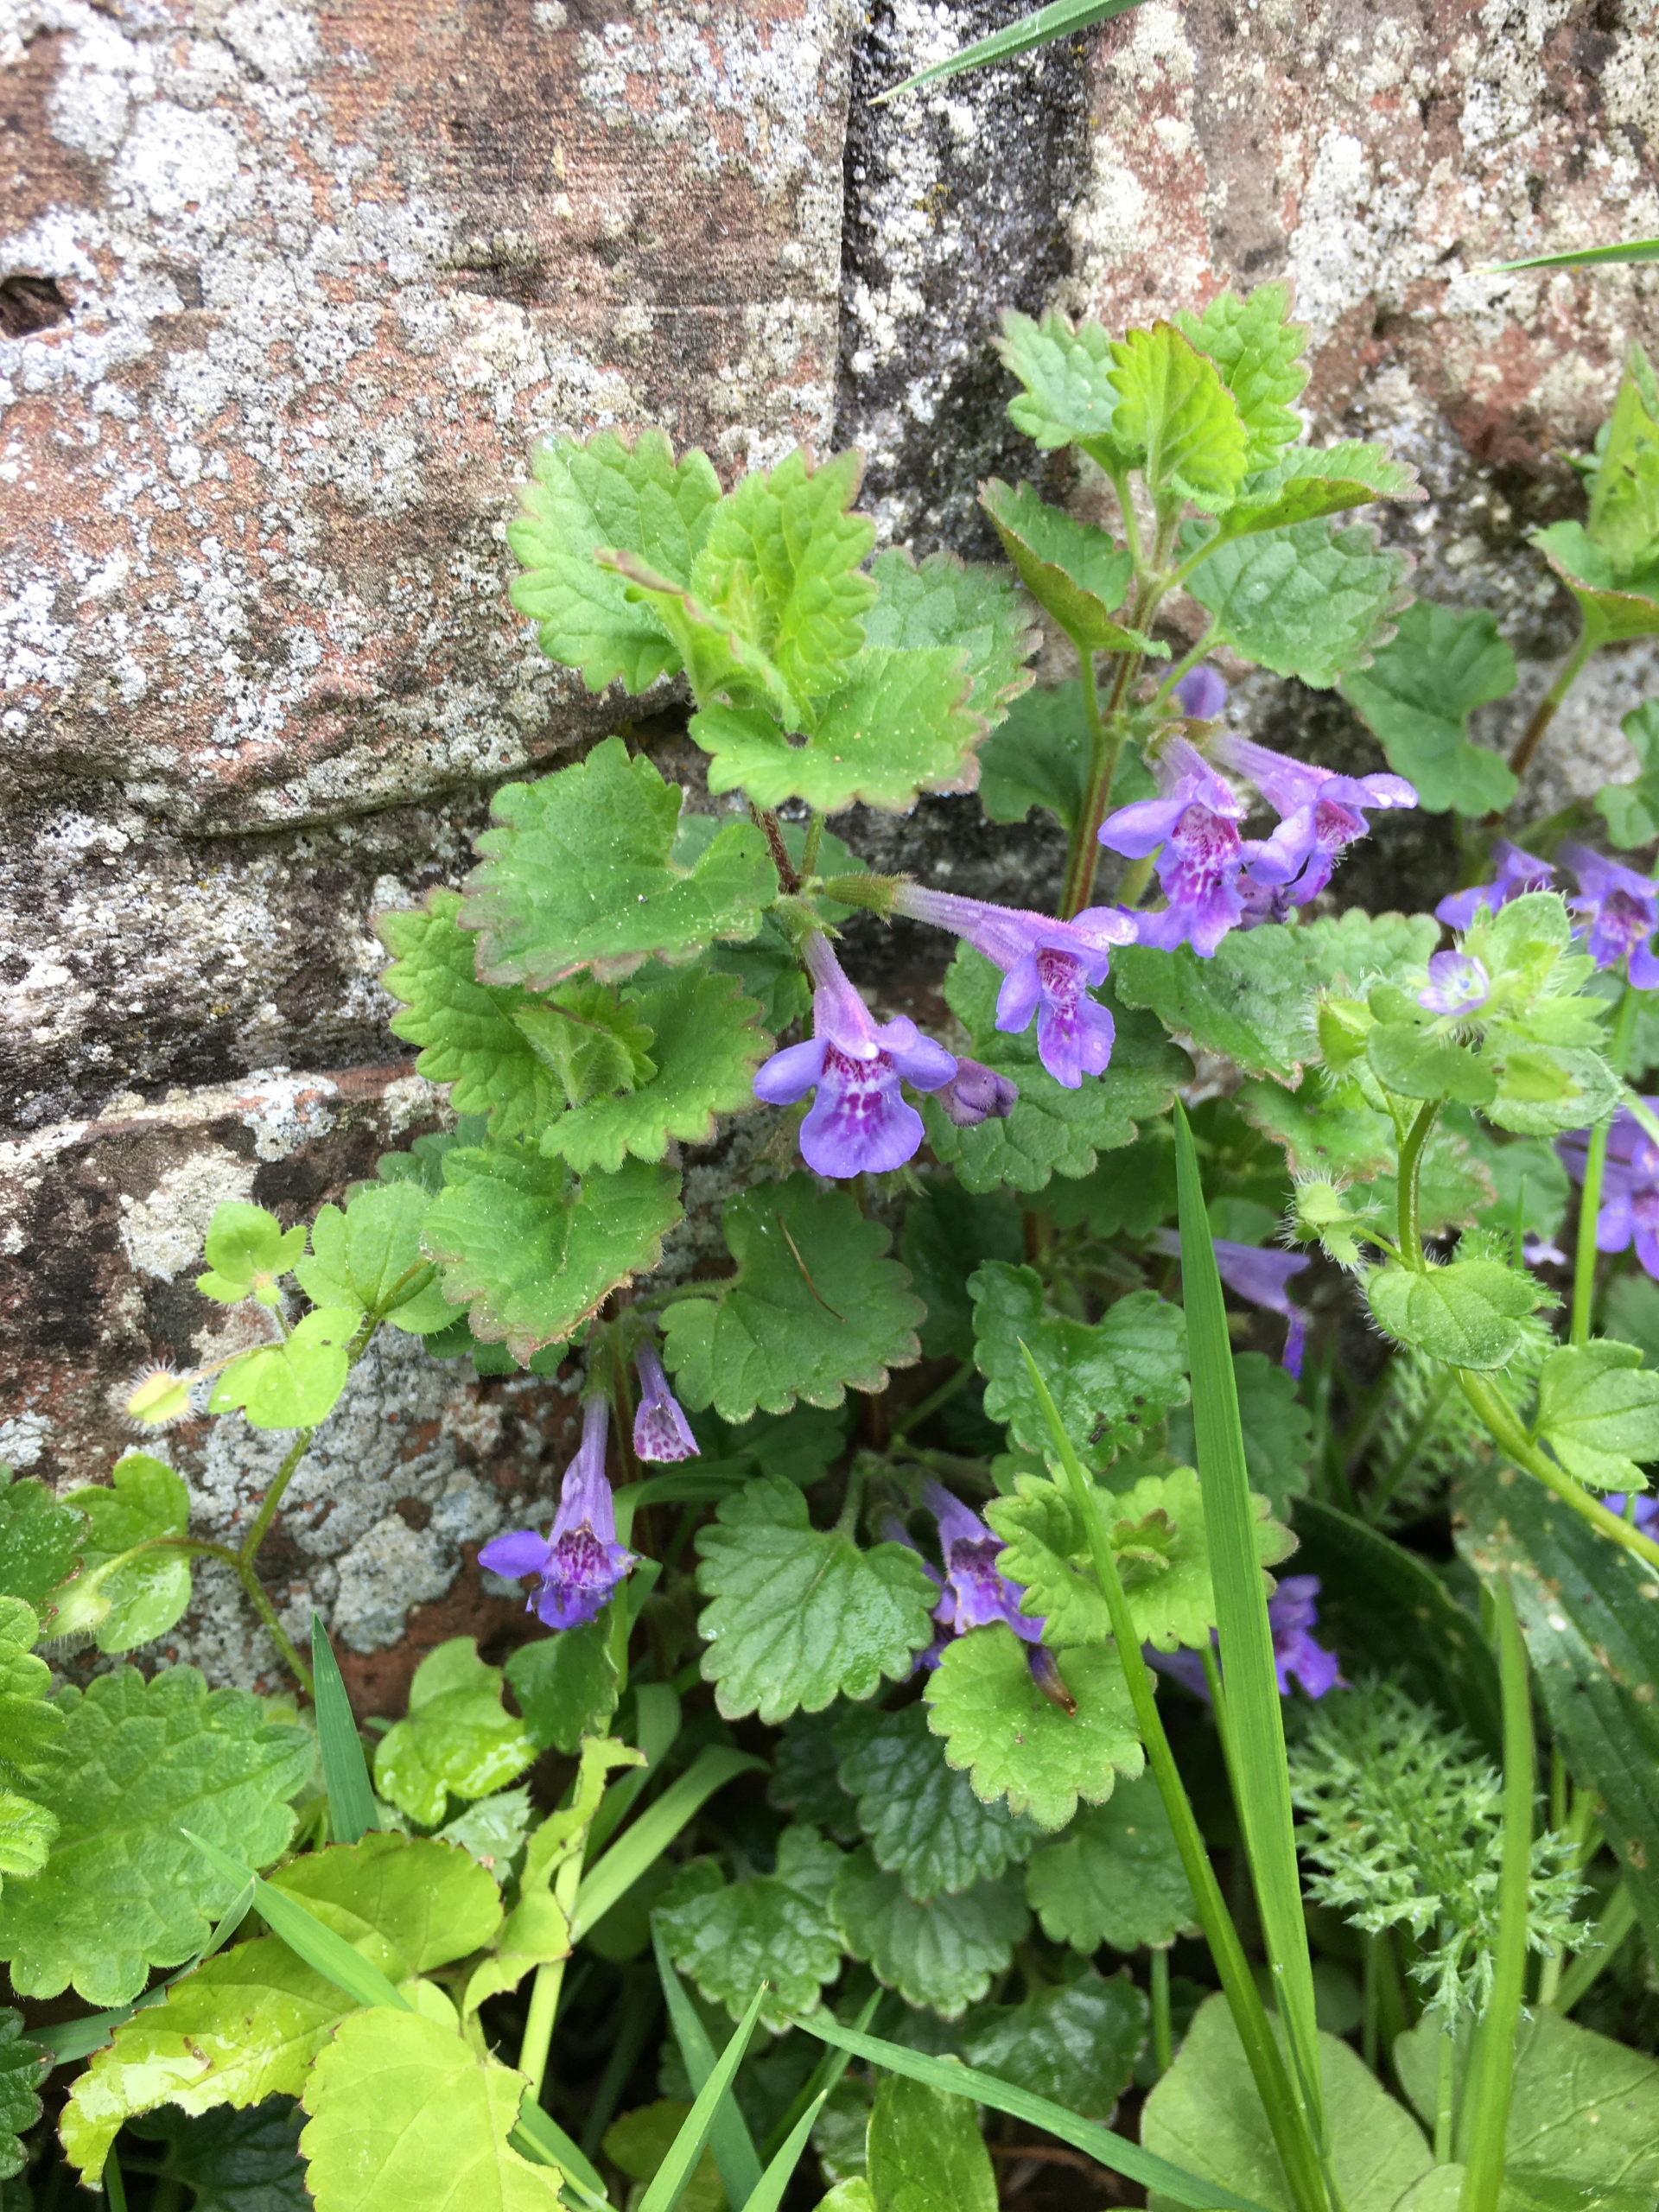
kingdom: Plantae
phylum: Tracheophyta
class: Magnoliopsida
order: Lamiales
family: Lamiaceae
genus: Glechoma
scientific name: Glechoma hederacea
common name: Korsknap
